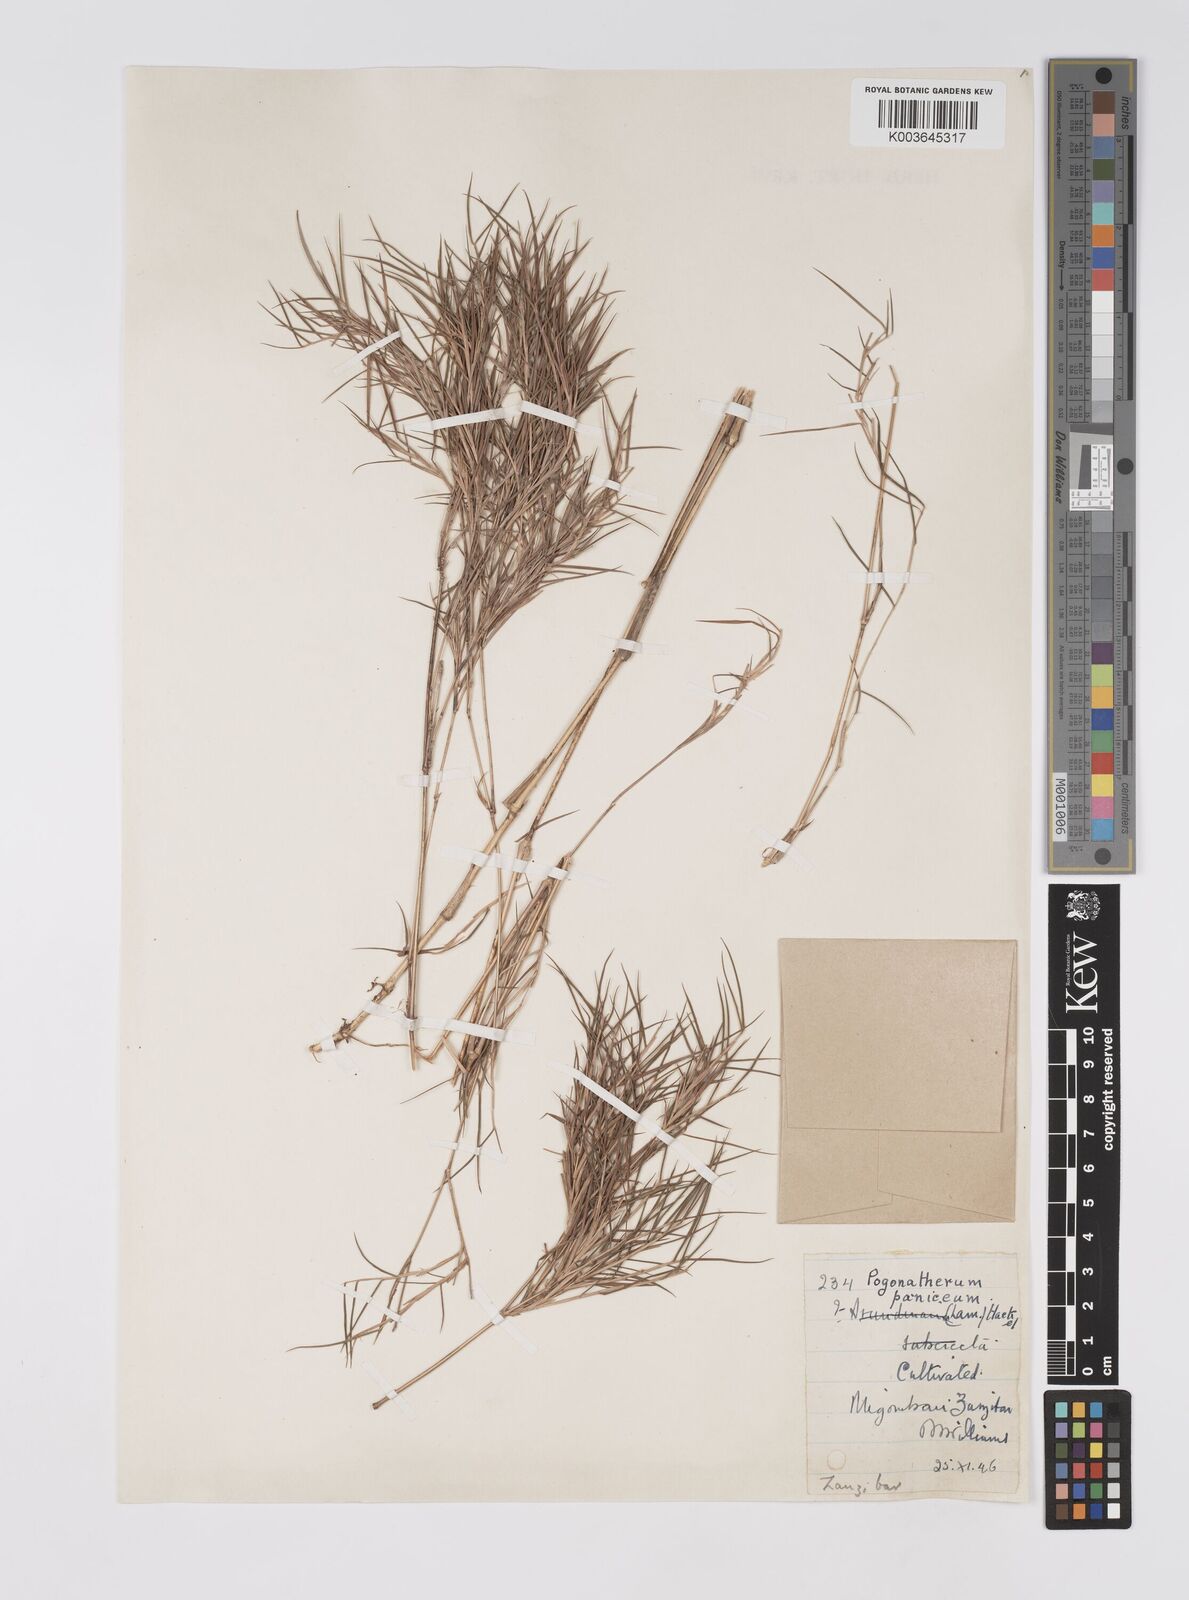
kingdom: Plantae
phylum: Tracheophyta
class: Liliopsida
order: Poales
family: Poaceae
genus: Pogonatherum
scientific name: Pogonatherum paniceum
